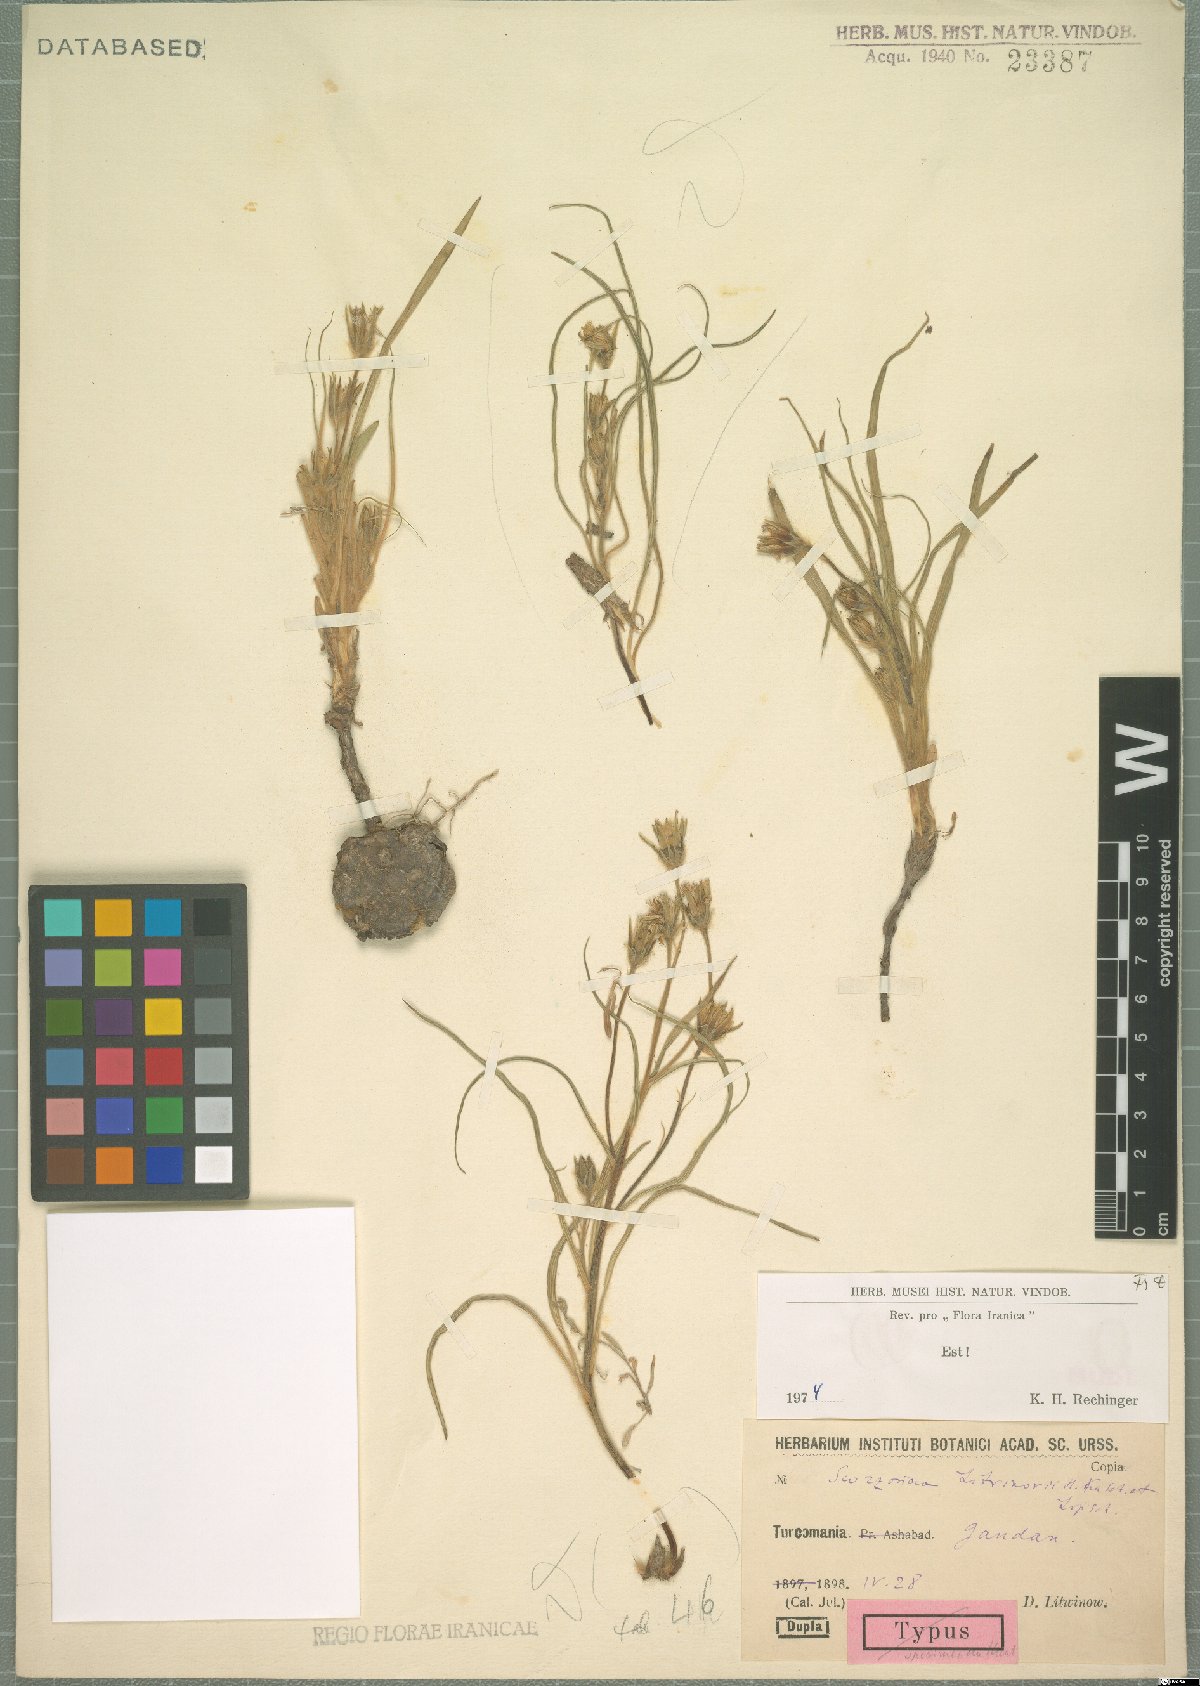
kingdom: Plantae
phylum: Tracheophyta
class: Magnoliopsida
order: Asterales
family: Asteraceae
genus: Goekyighitia
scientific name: Goekyighitia litwinowii
